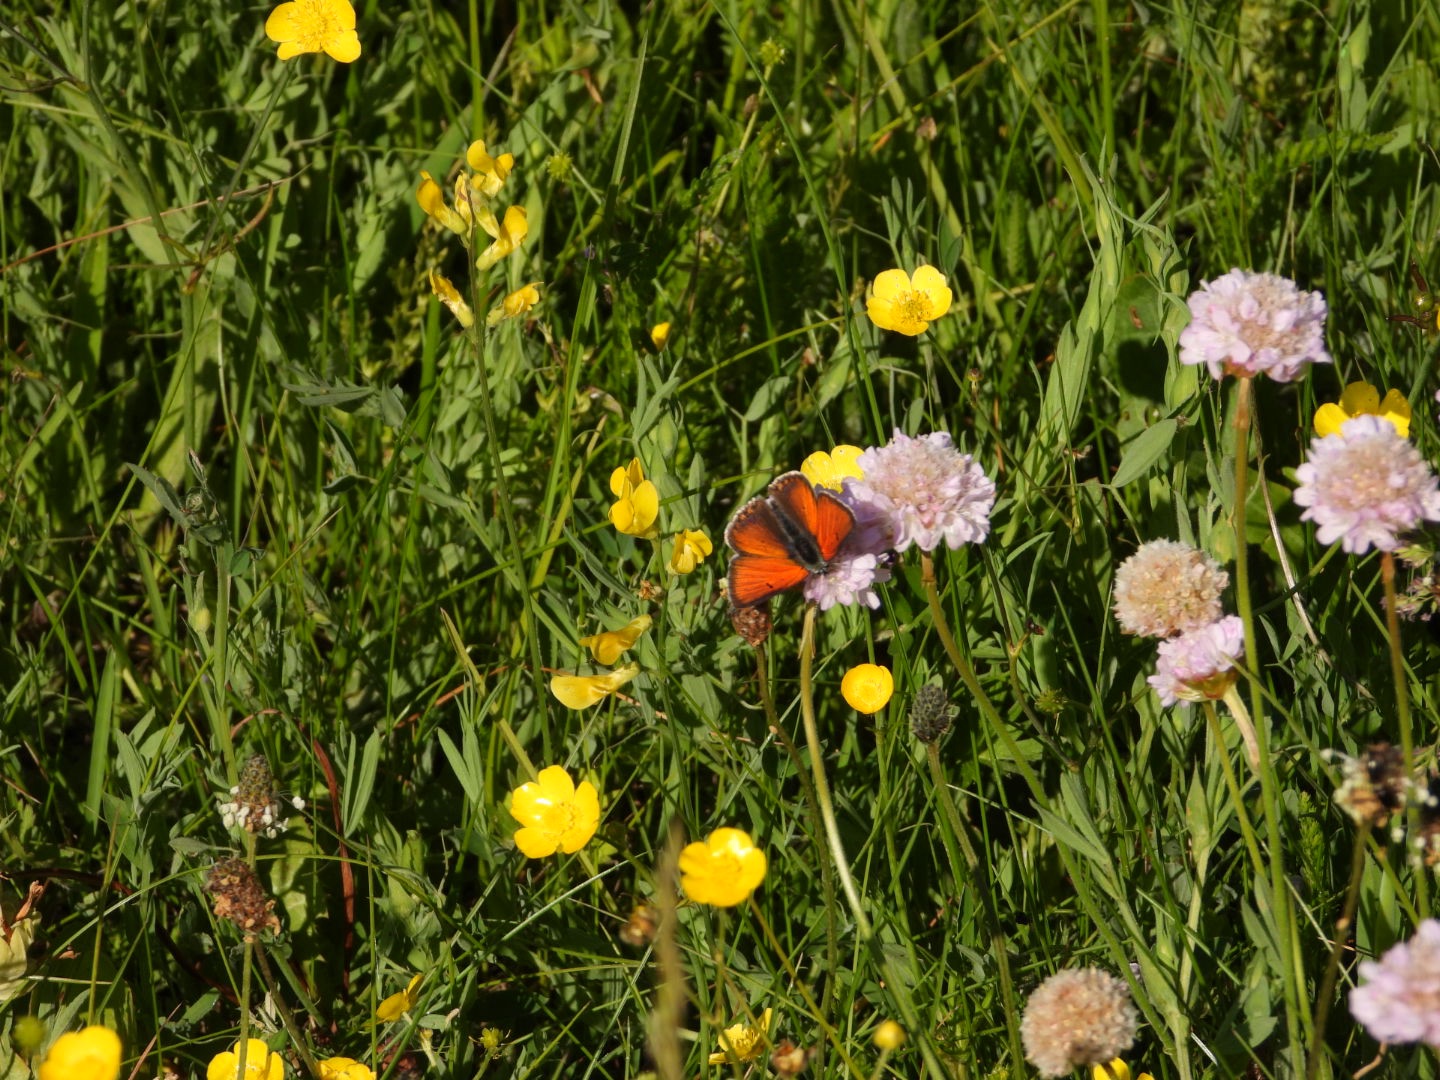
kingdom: Animalia
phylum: Arthropoda
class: Insecta
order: Lepidoptera
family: Lycaenidae
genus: Palaeochrysophanus
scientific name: Palaeochrysophanus hippothoe
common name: Violetrandet ildfugl
